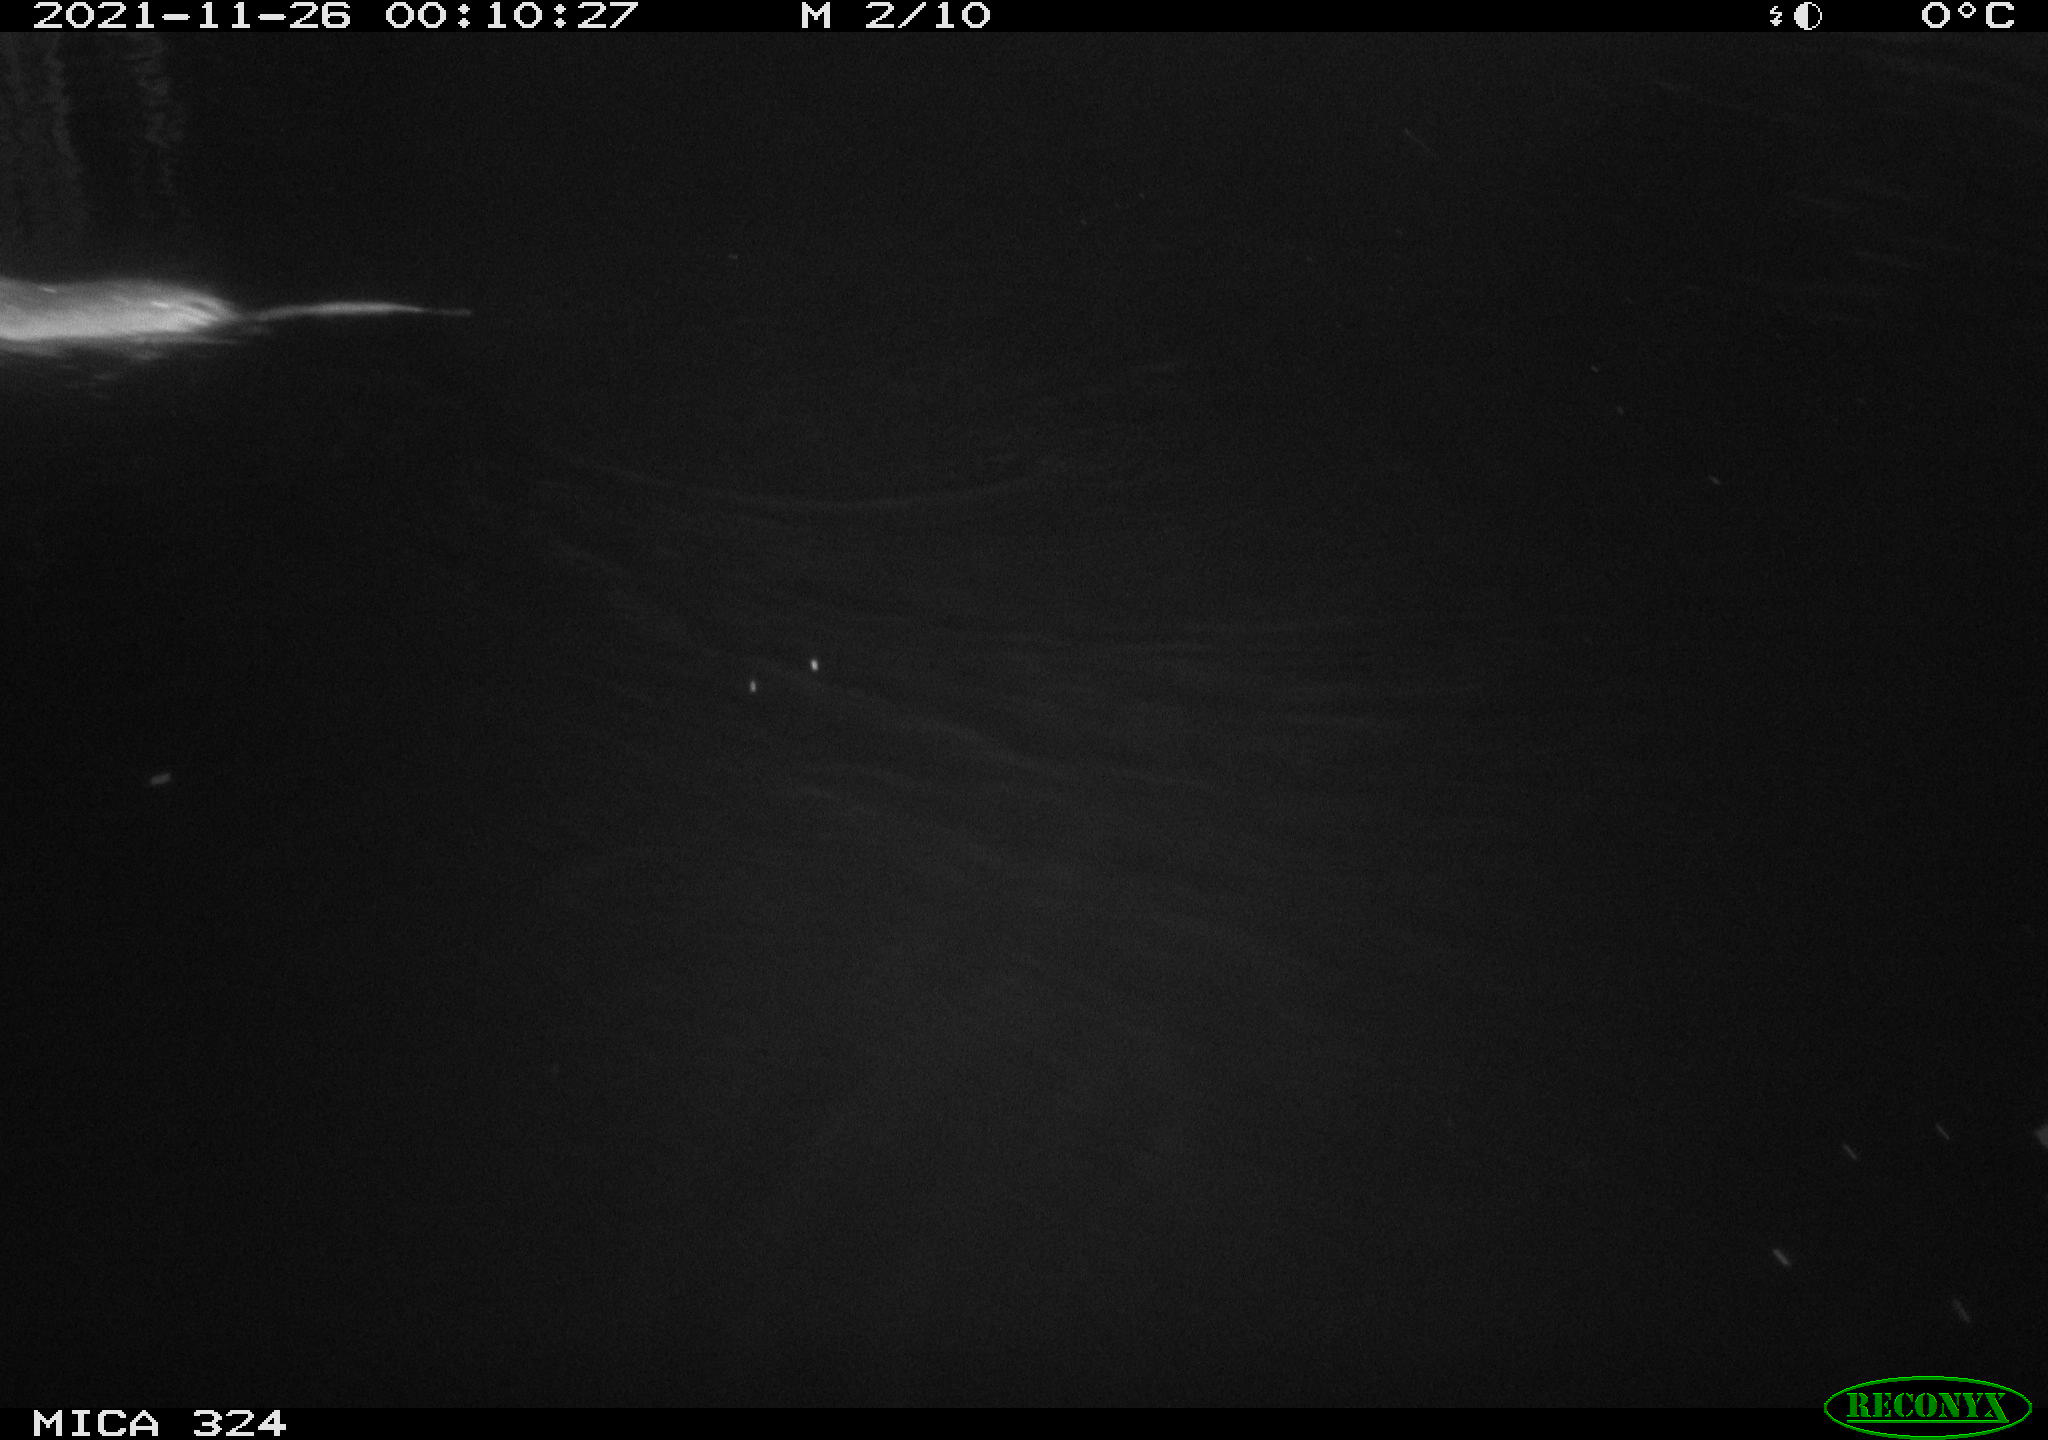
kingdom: Animalia
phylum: Chordata
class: Mammalia
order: Rodentia
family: Cricetidae
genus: Ondatra
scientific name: Ondatra zibethicus
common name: Muskrat
